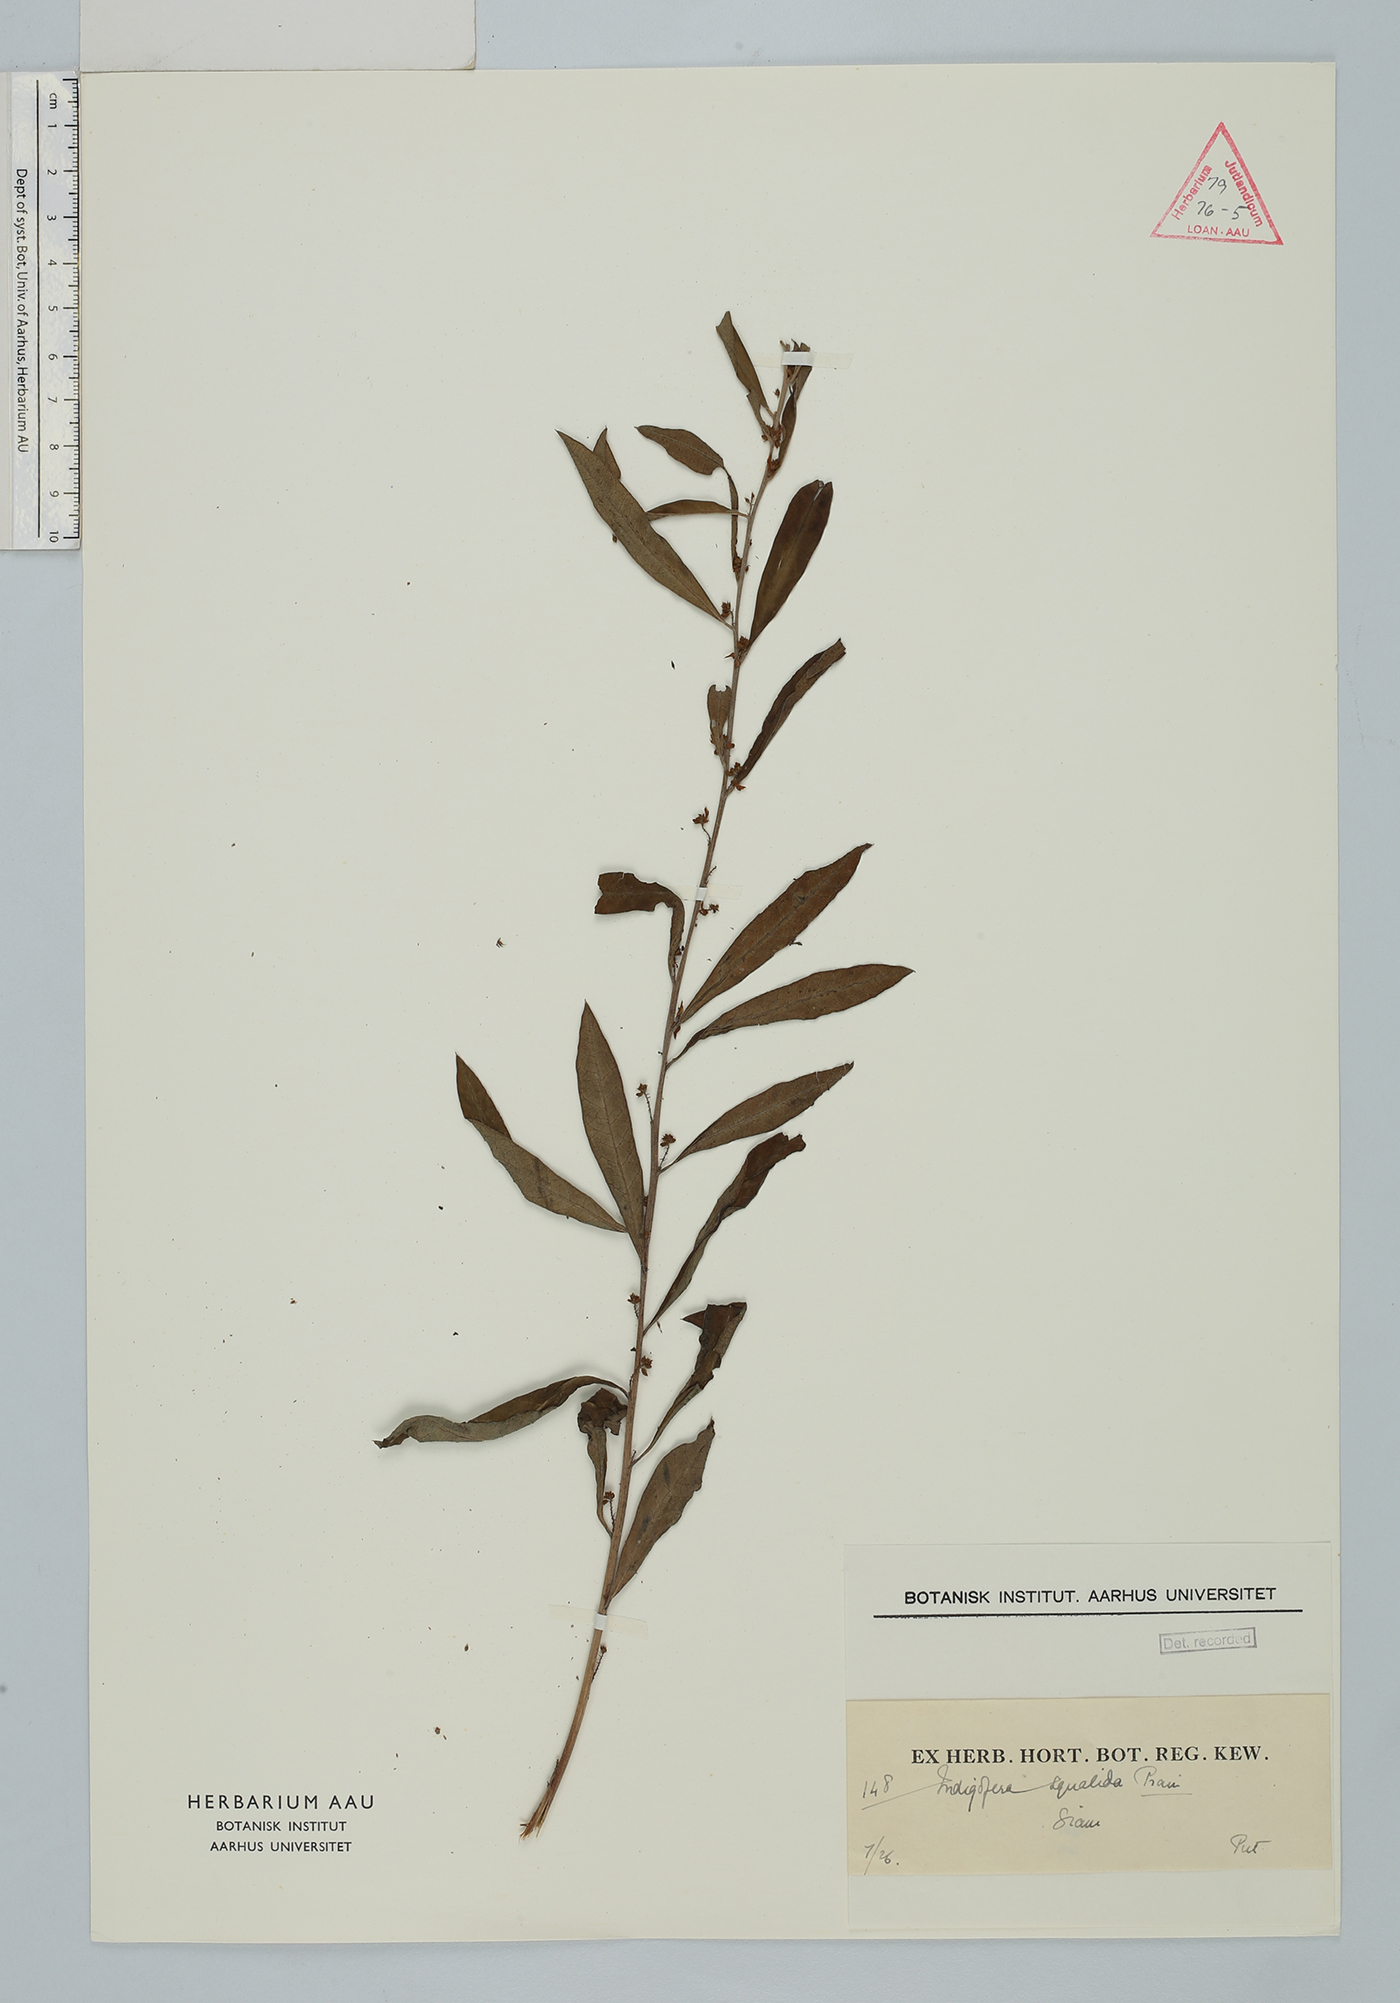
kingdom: Plantae
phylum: Tracheophyta
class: Magnoliopsida
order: Fabales
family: Fabaceae
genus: Indigofera
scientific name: Indigofera squalida
